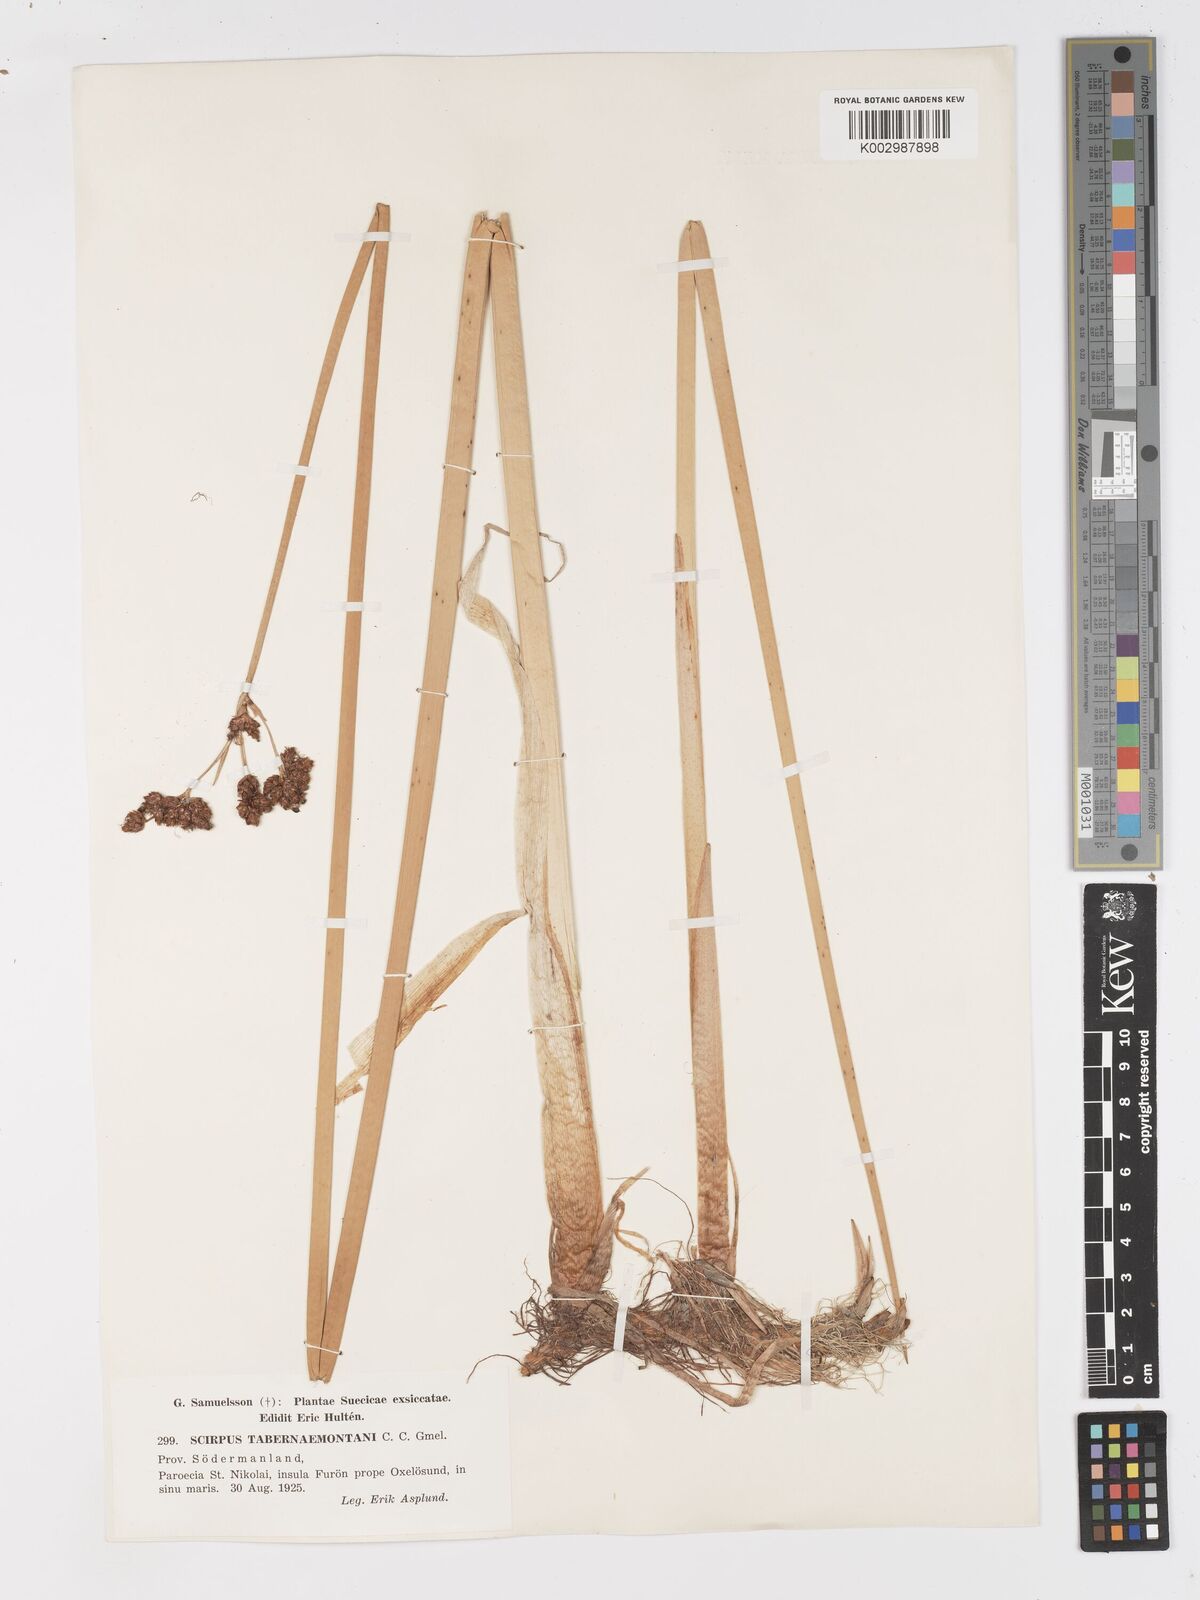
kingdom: Plantae
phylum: Tracheophyta
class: Liliopsida
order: Poales
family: Cyperaceae
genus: Schoenoplectus
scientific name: Schoenoplectus tabernaemontani
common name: Grey club-rush
